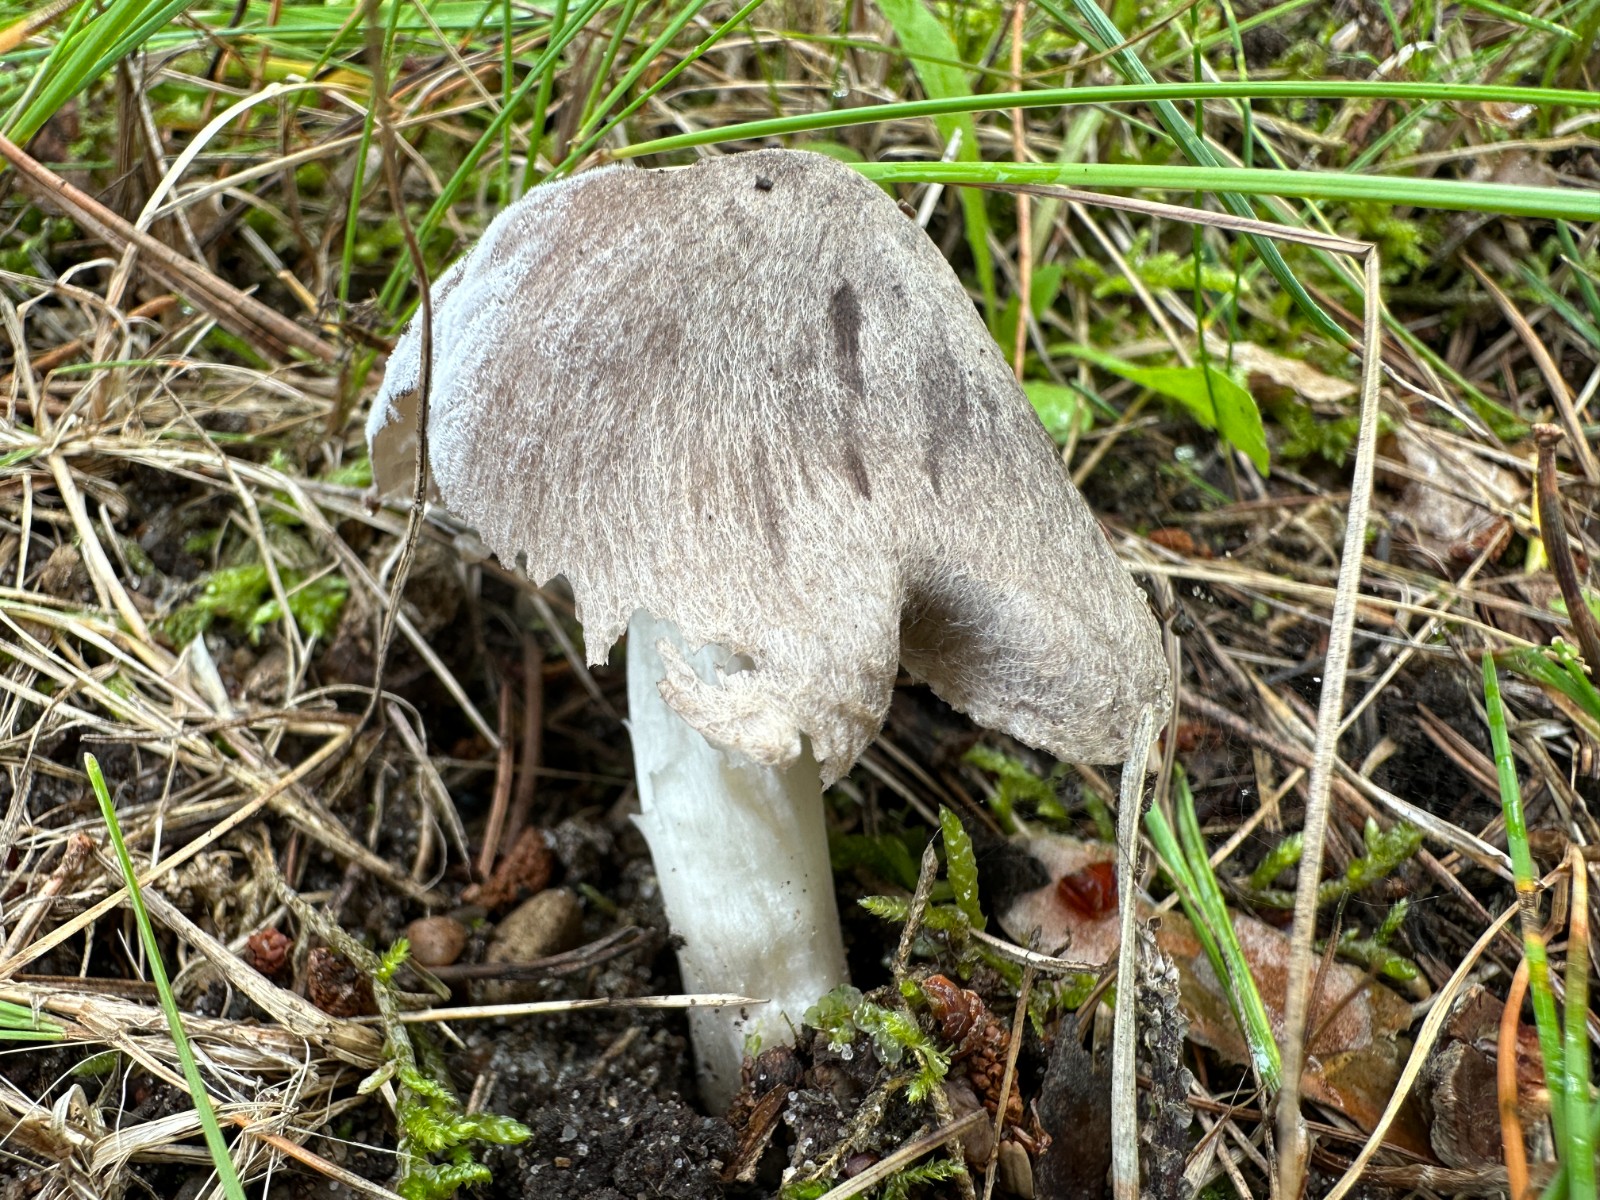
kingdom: Fungi
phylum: Basidiomycota
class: Agaricomycetes
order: Agaricales
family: Tricholomataceae
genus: Tricholoma
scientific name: Tricholoma terreum
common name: jordfarvet ridderhat
